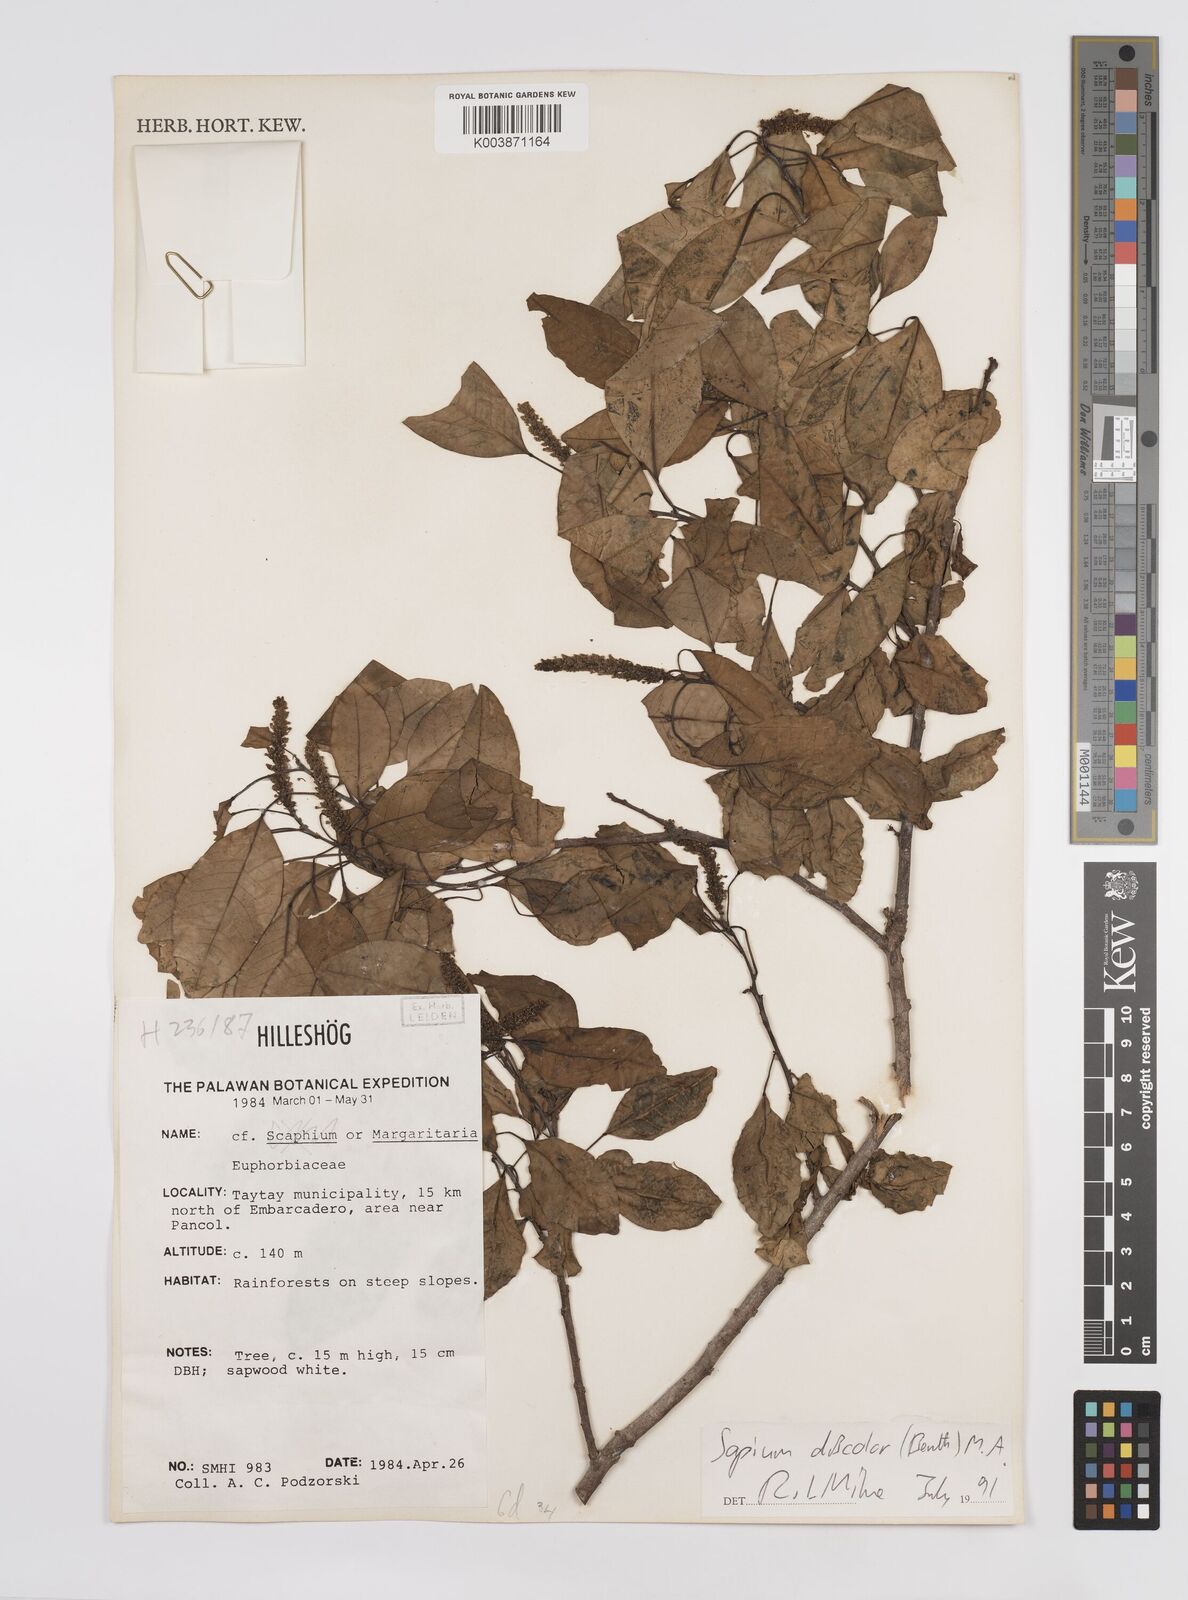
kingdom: Plantae
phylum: Tracheophyta
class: Magnoliopsida
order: Malpighiales
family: Euphorbiaceae
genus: Triadica
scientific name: Triadica cochinchinensis
